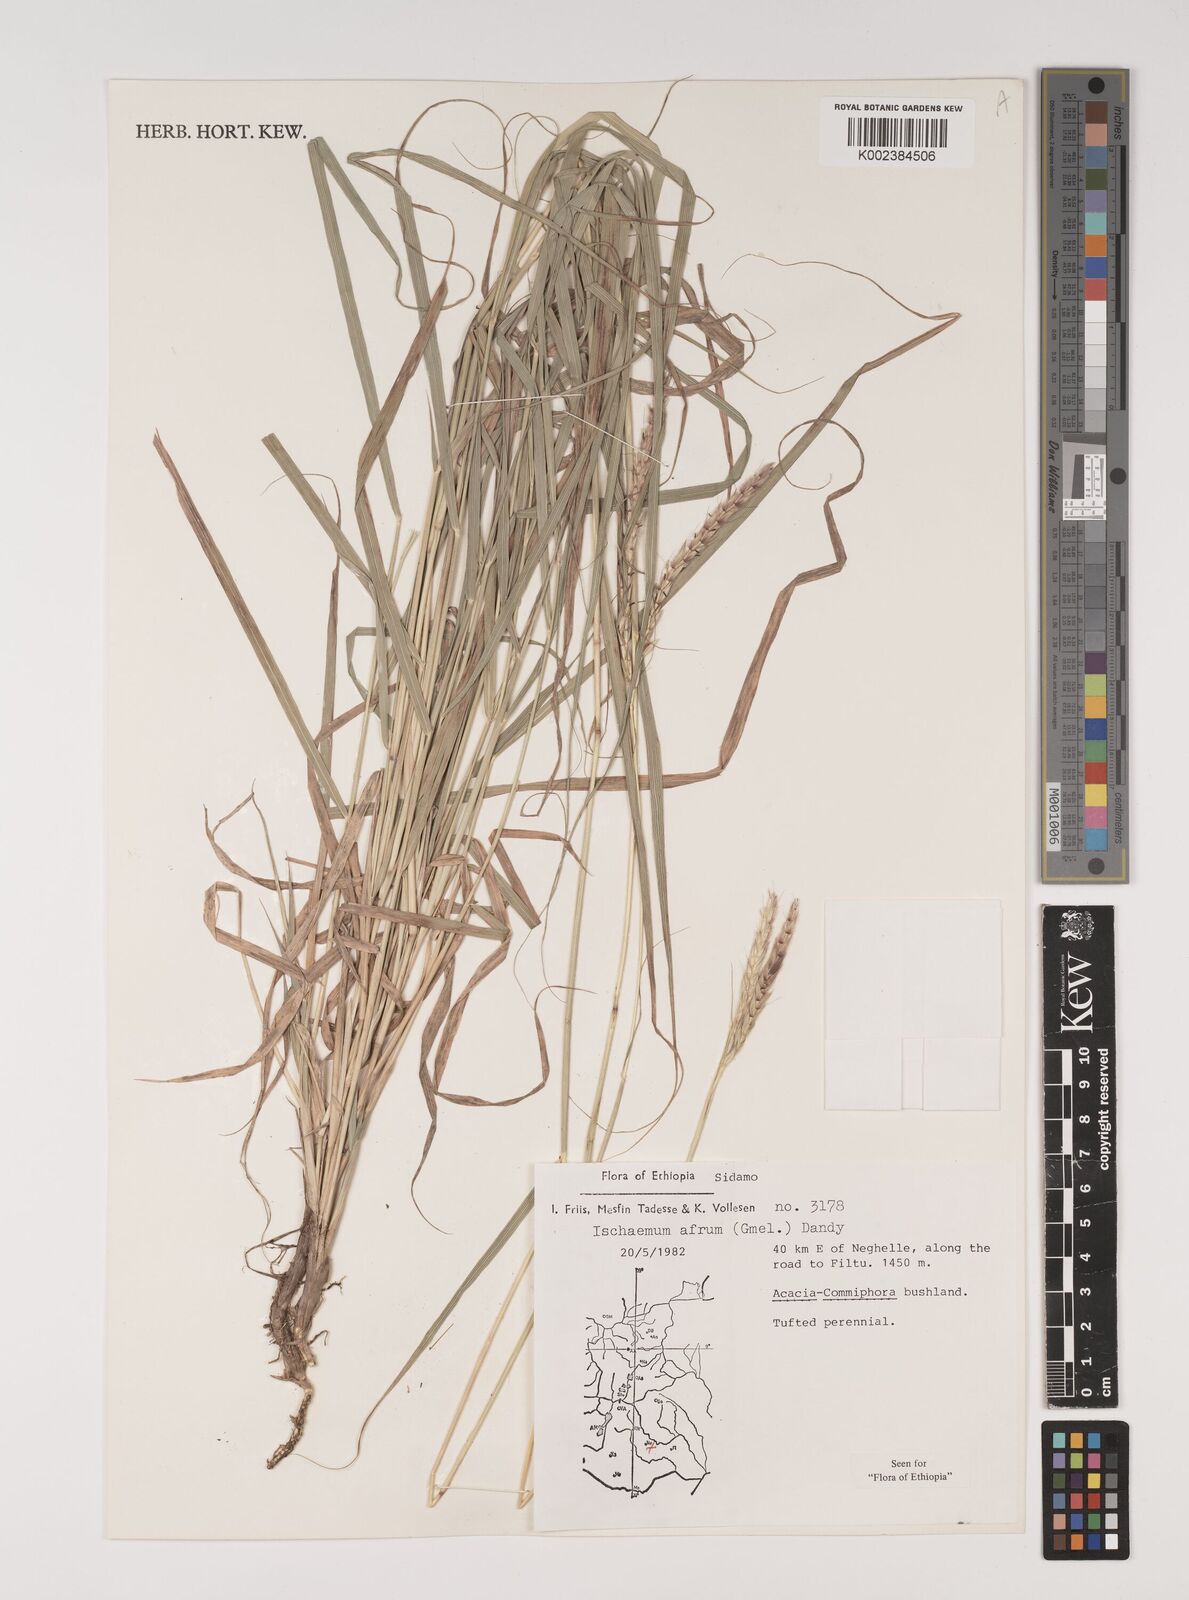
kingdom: Plantae
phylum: Tracheophyta
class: Liliopsida
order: Poales
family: Poaceae
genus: Ischaemum
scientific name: Ischaemum afrum
